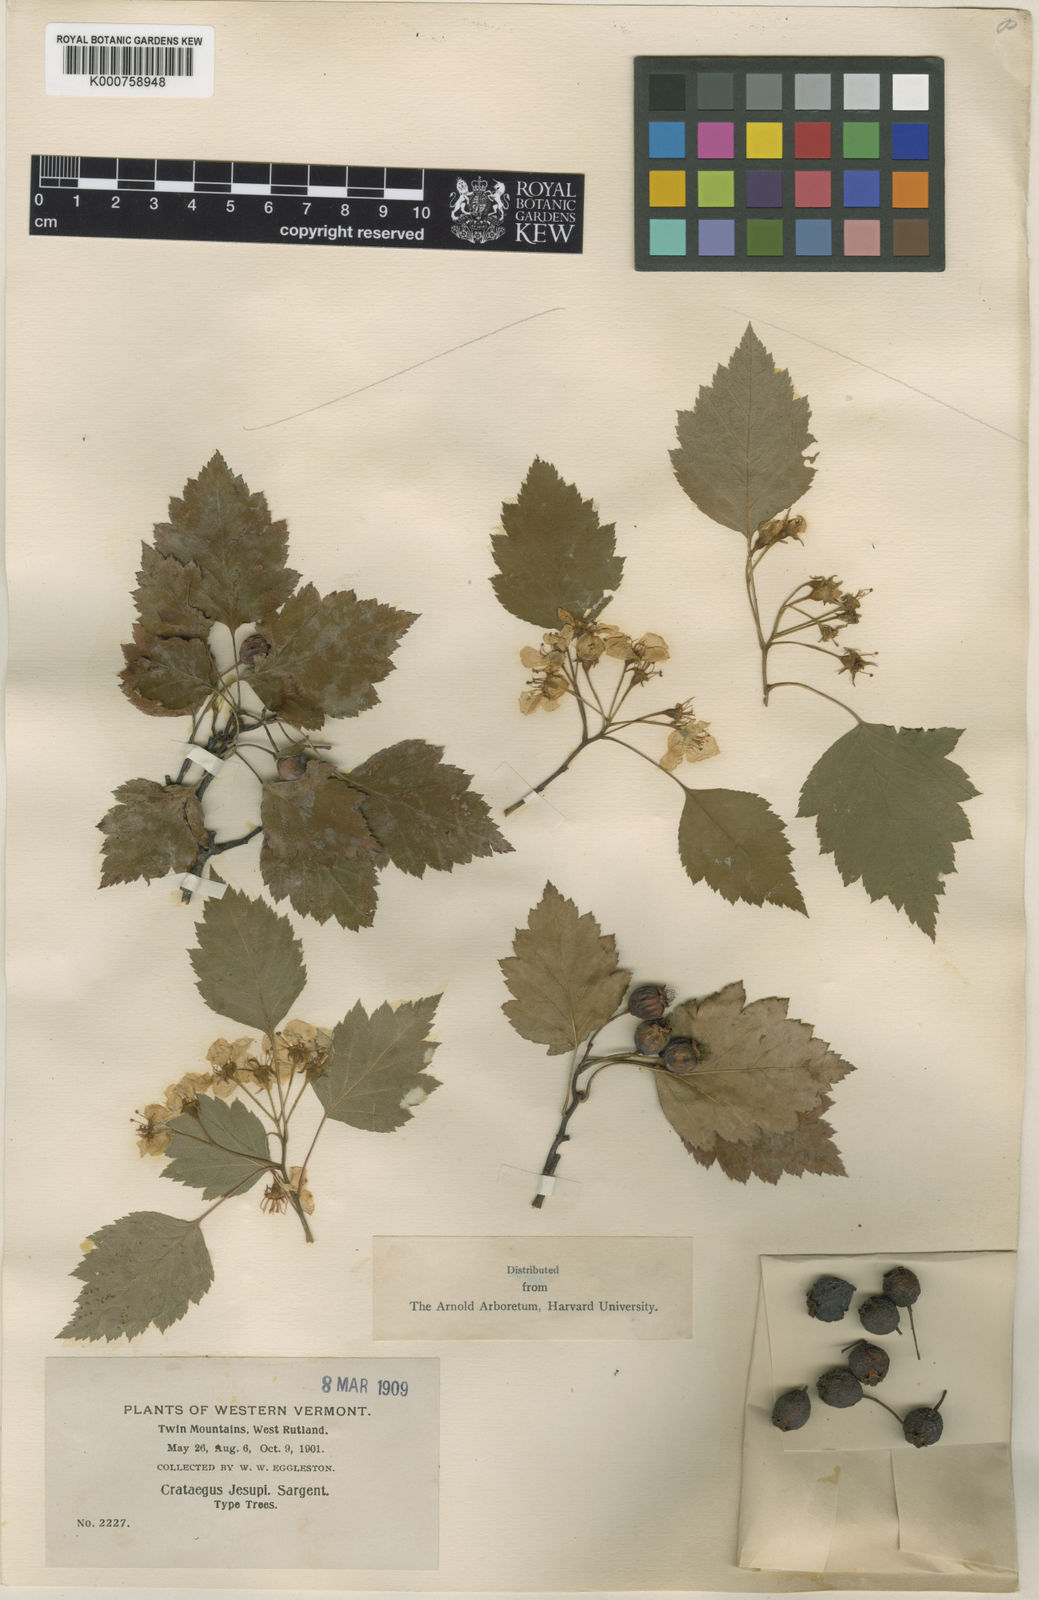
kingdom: Plantae
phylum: Tracheophyta
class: Magnoliopsida
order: Rosales
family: Rosaceae
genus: Crataegus
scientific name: Crataegus jesupii
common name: Jesup's hawthorn
